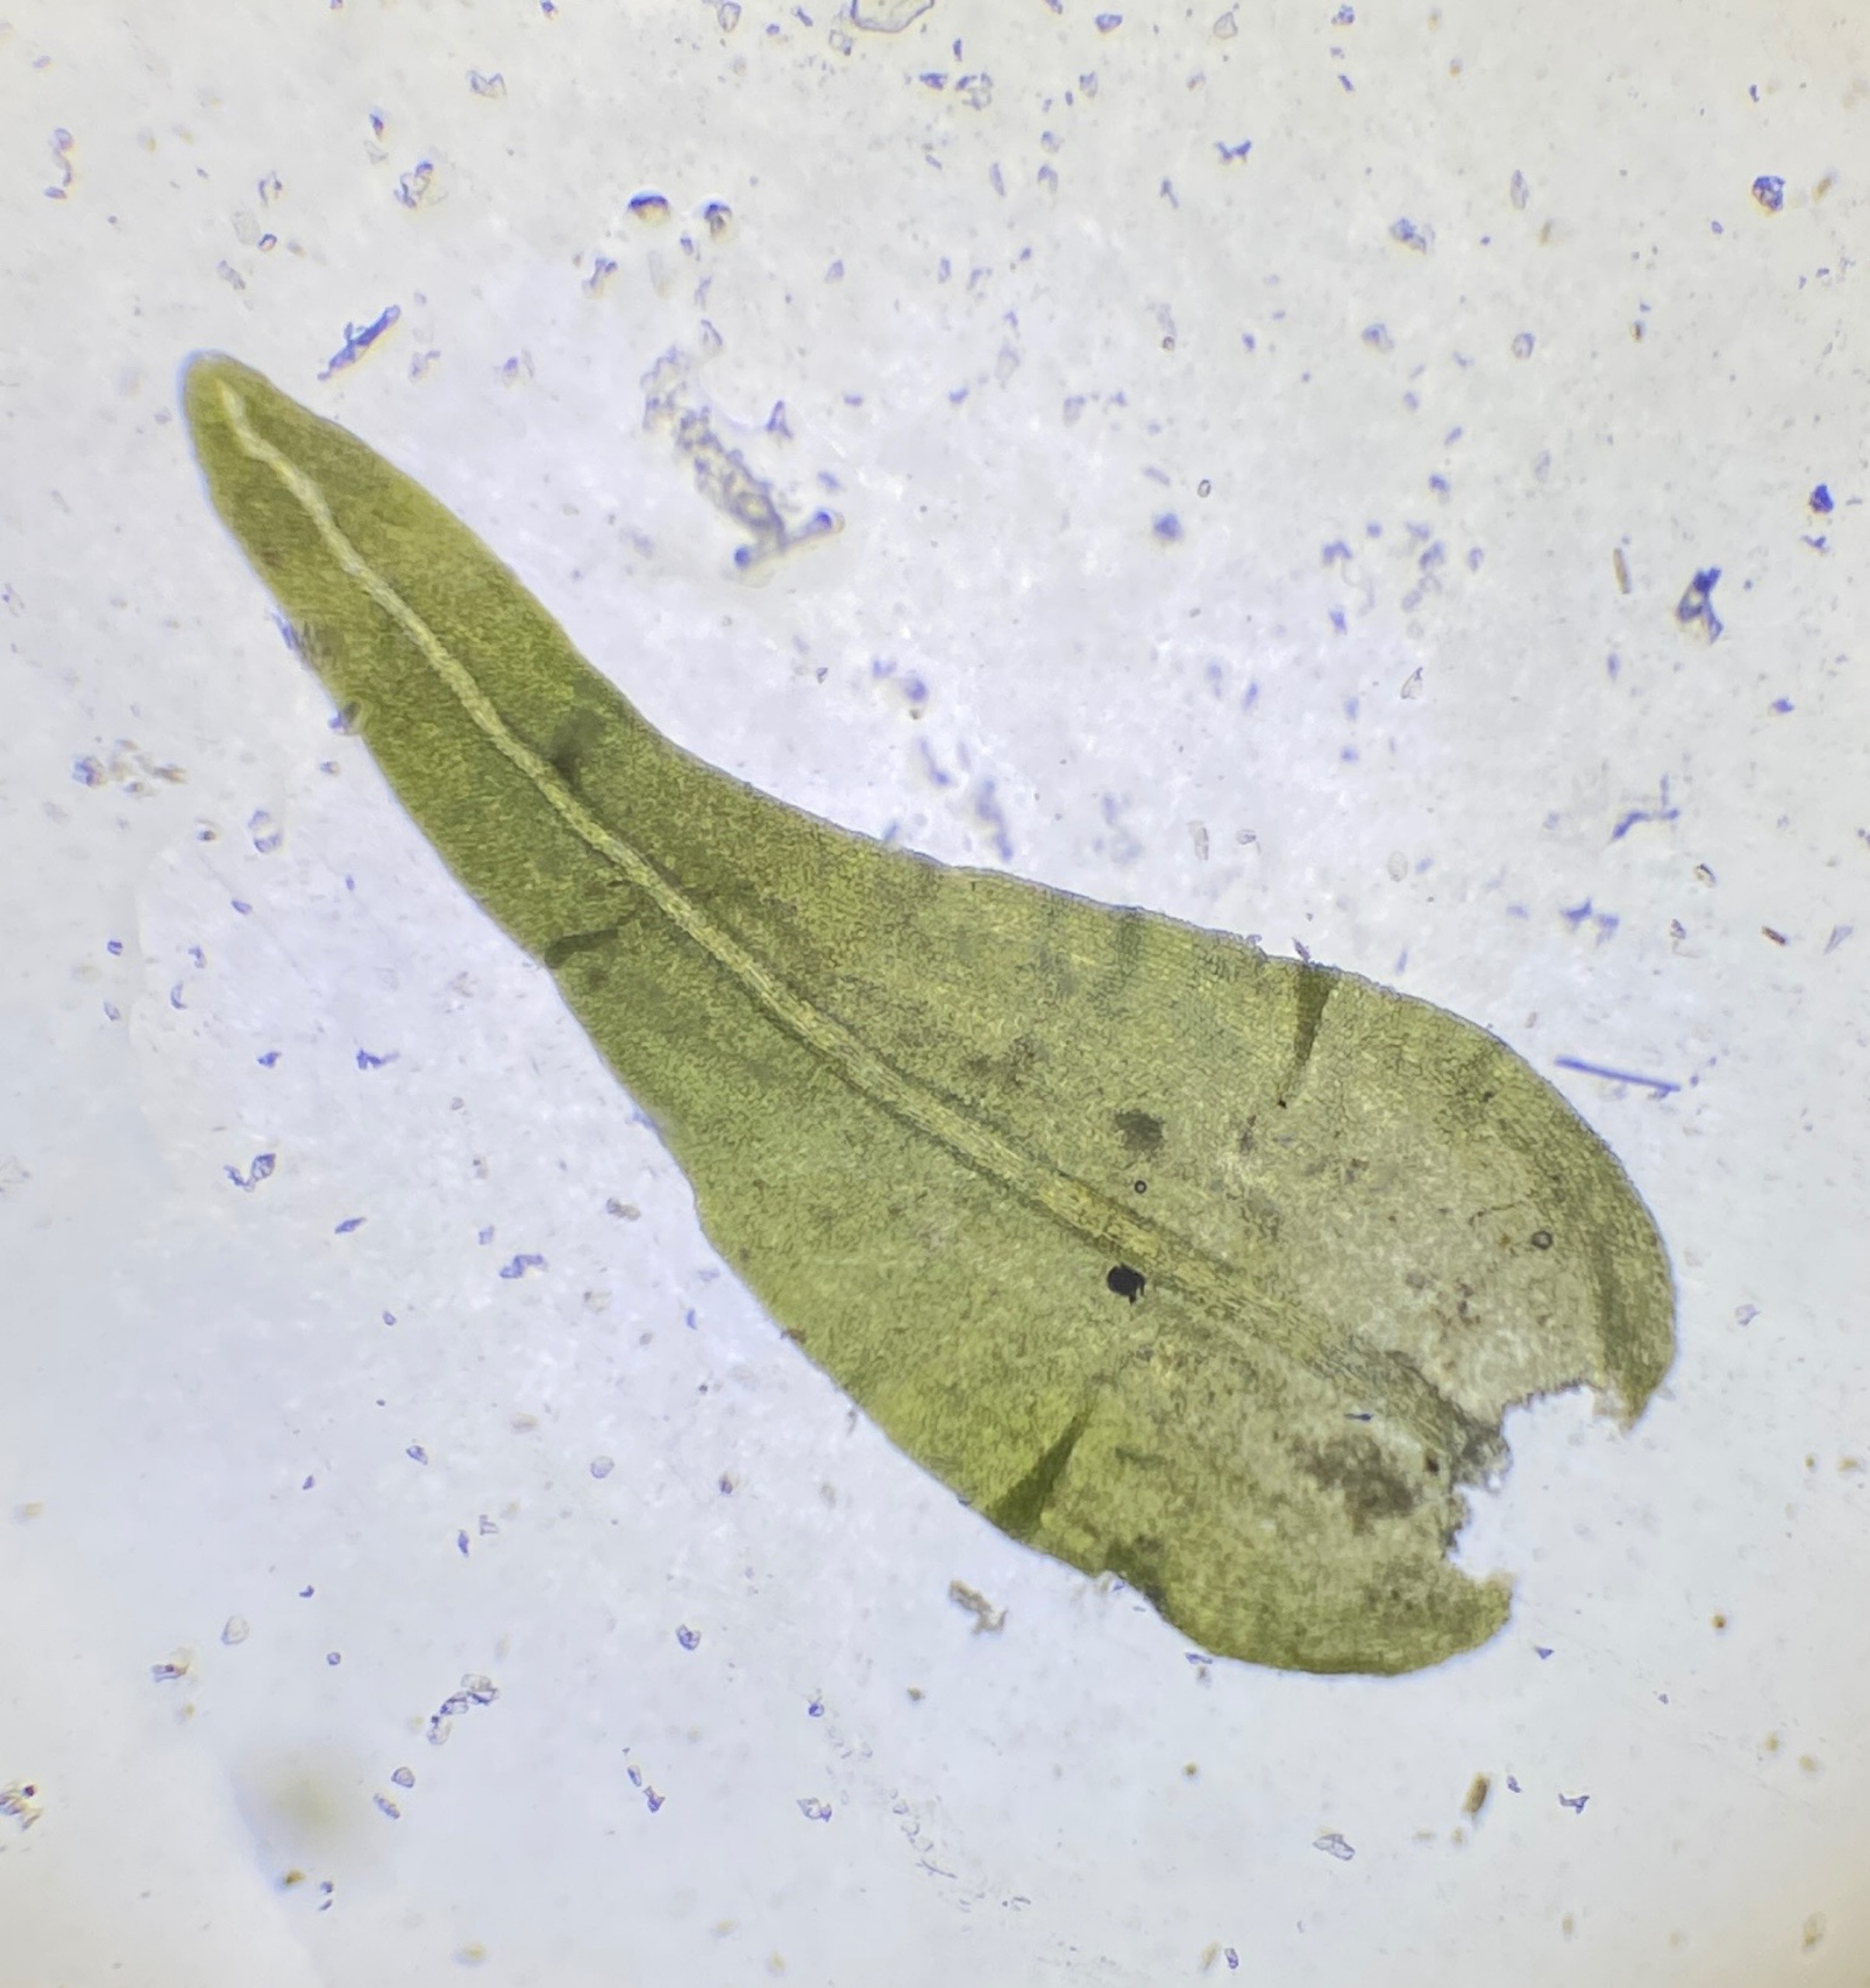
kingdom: Plantae
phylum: Bryophyta
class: Bryopsida
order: Hypnales
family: Anomodontaceae
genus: Anomodon
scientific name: Anomodon viticulosus
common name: Robust matblad
